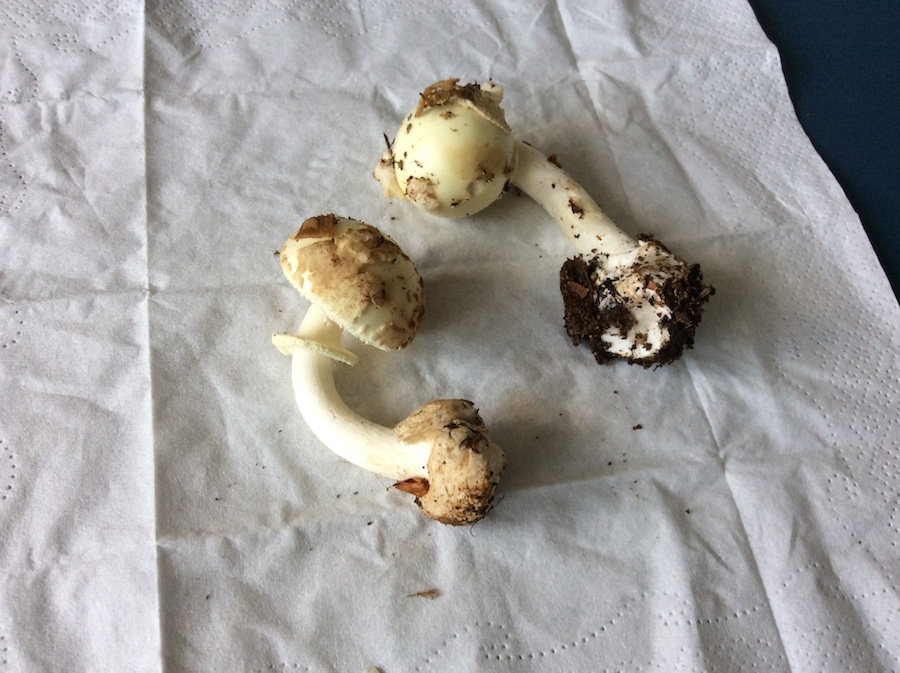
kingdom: Fungi
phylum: Basidiomycota
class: Agaricomycetes
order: Agaricales
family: Amanitaceae
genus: Amanita
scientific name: Amanita citrina
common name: kugleknoldet fluesvamp
